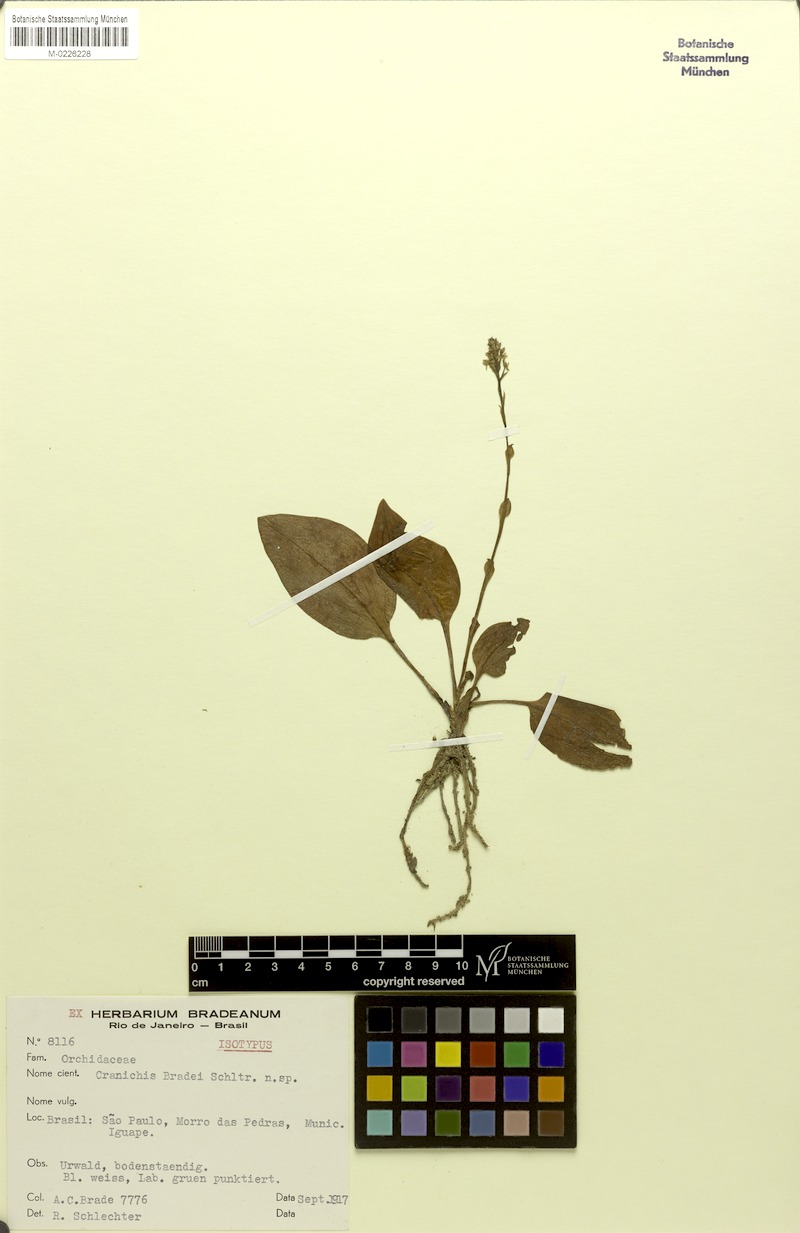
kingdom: Plantae
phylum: Tracheophyta
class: Liliopsida
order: Asparagales
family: Orchidaceae
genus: Cranichis
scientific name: Cranichis muscosa
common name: Cypress-knee helmet orchid
